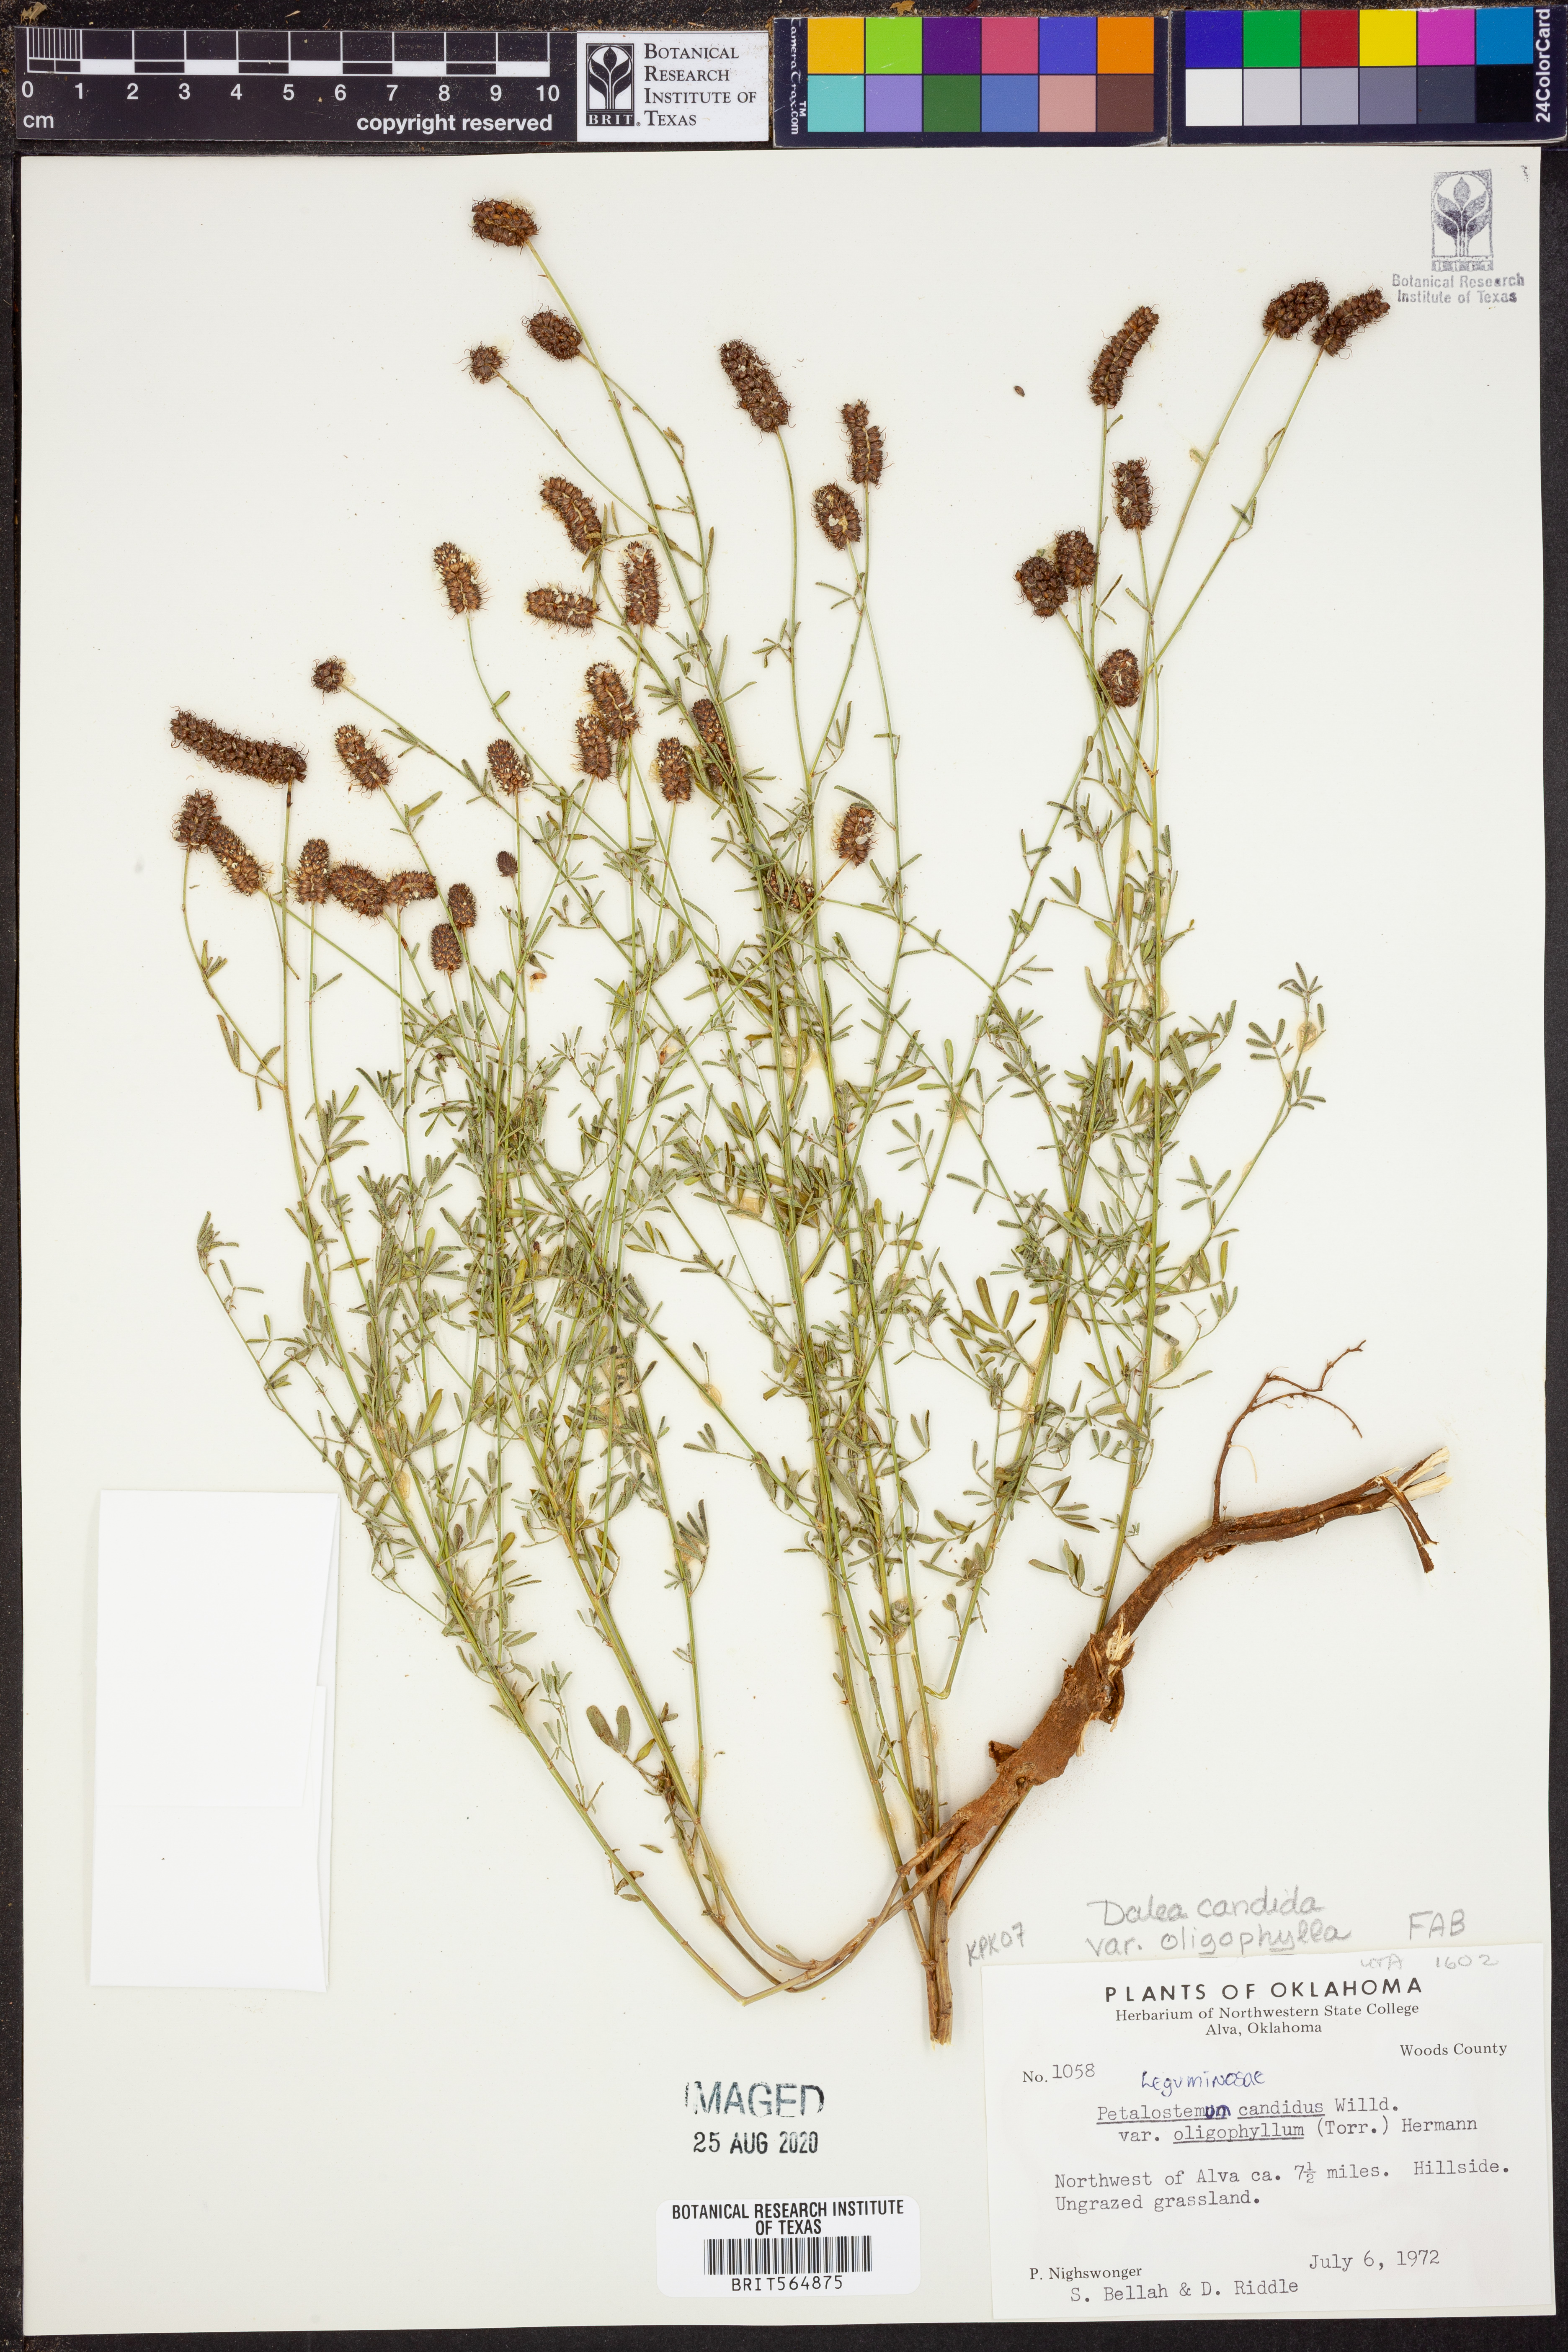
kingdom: Plantae
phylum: Tracheophyta
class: Magnoliopsida
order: Fabales
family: Fabaceae
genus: Dalea
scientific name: Dalea candida
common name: White prairie-clover
